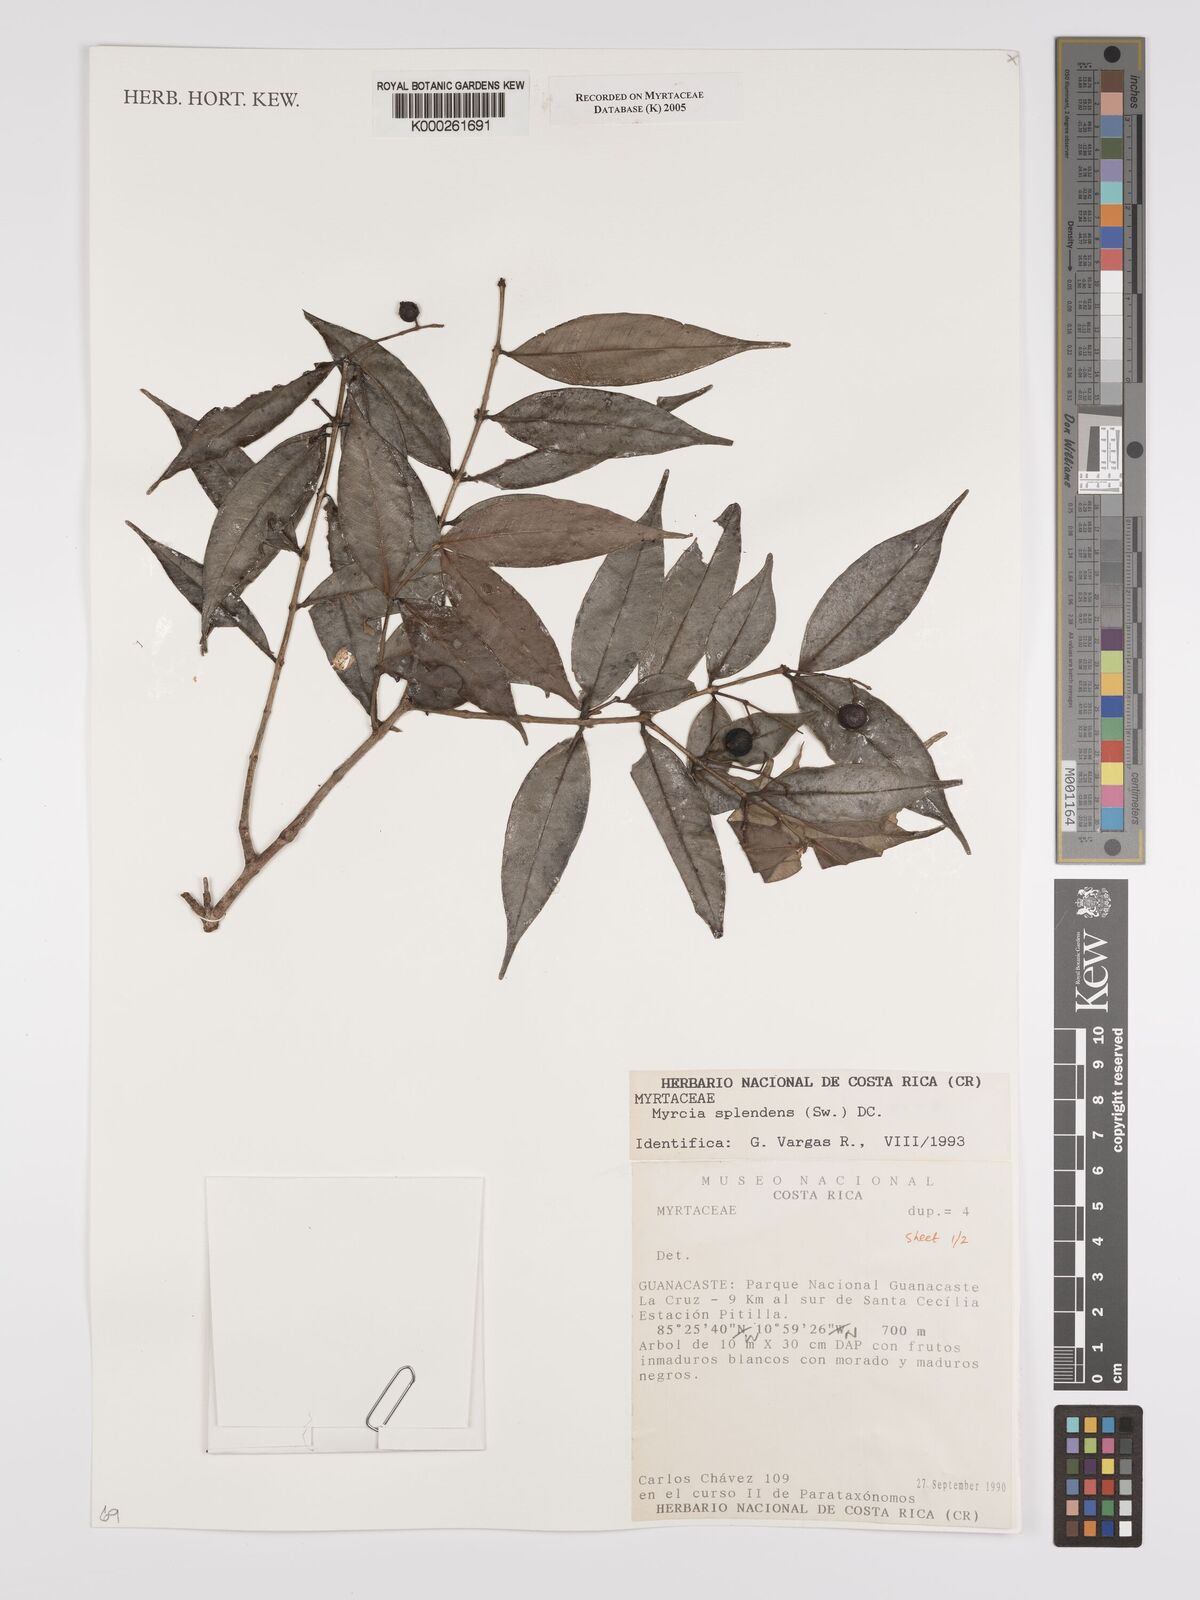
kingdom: Plantae
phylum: Tracheophyta
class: Magnoliopsida
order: Myrtales
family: Myrtaceae
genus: Myrcia
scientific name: Myrcia splendens
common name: Surinam cherry
